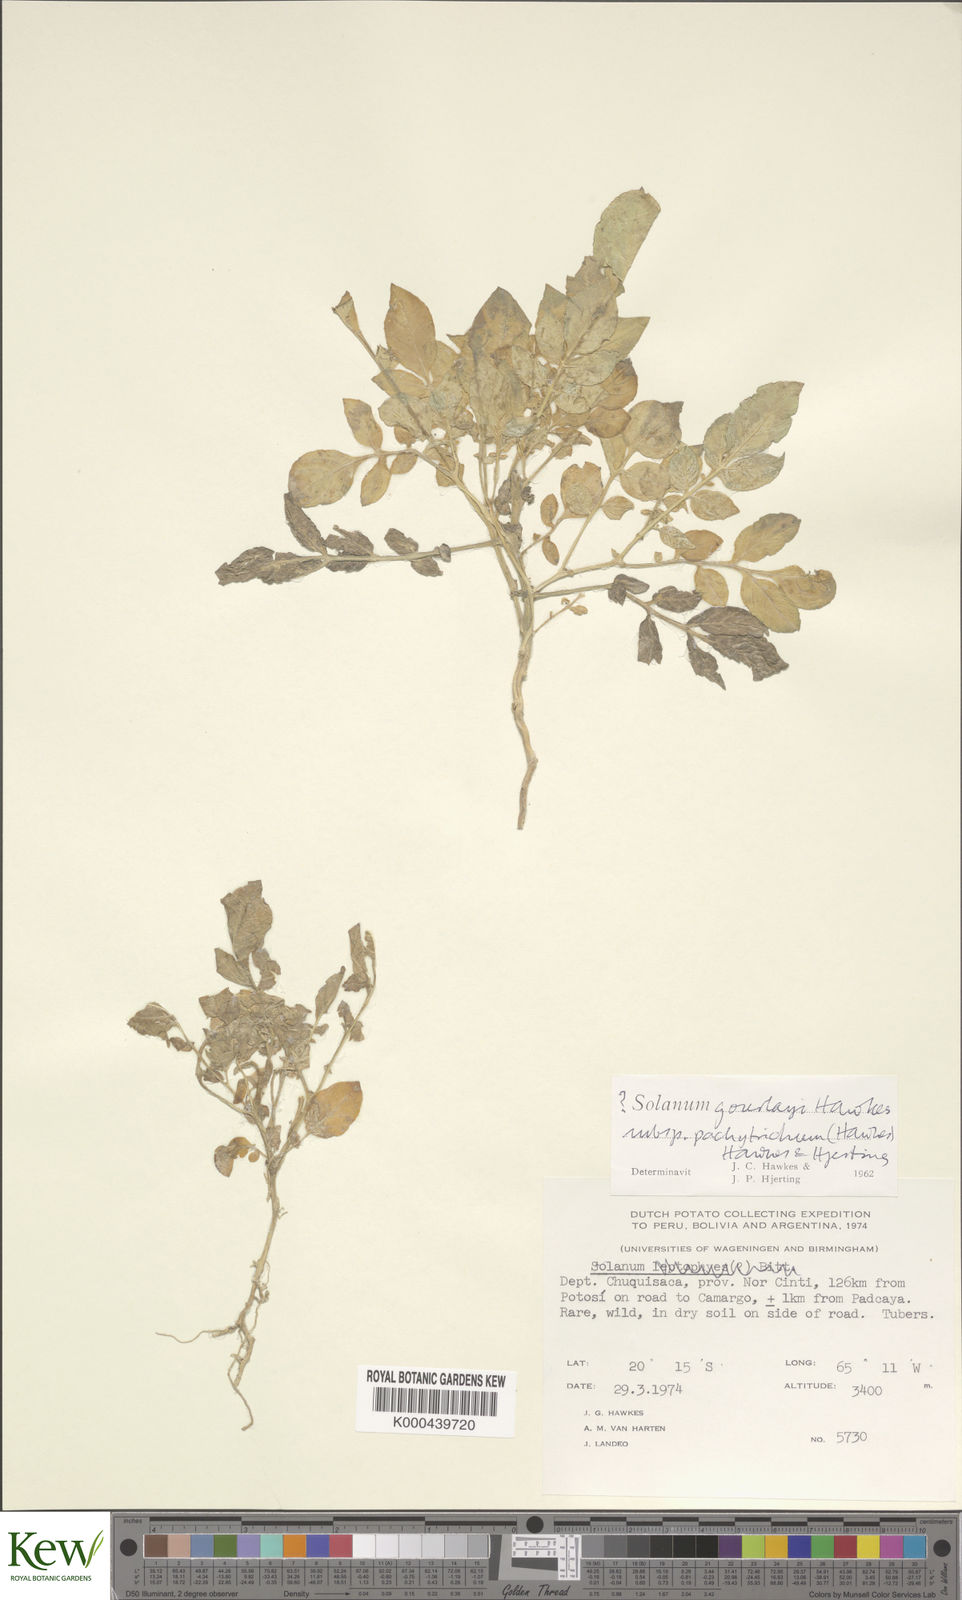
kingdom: Plantae
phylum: Tracheophyta
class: Magnoliopsida
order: Solanales
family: Solanaceae
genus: Solanum
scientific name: Solanum brevicaule
